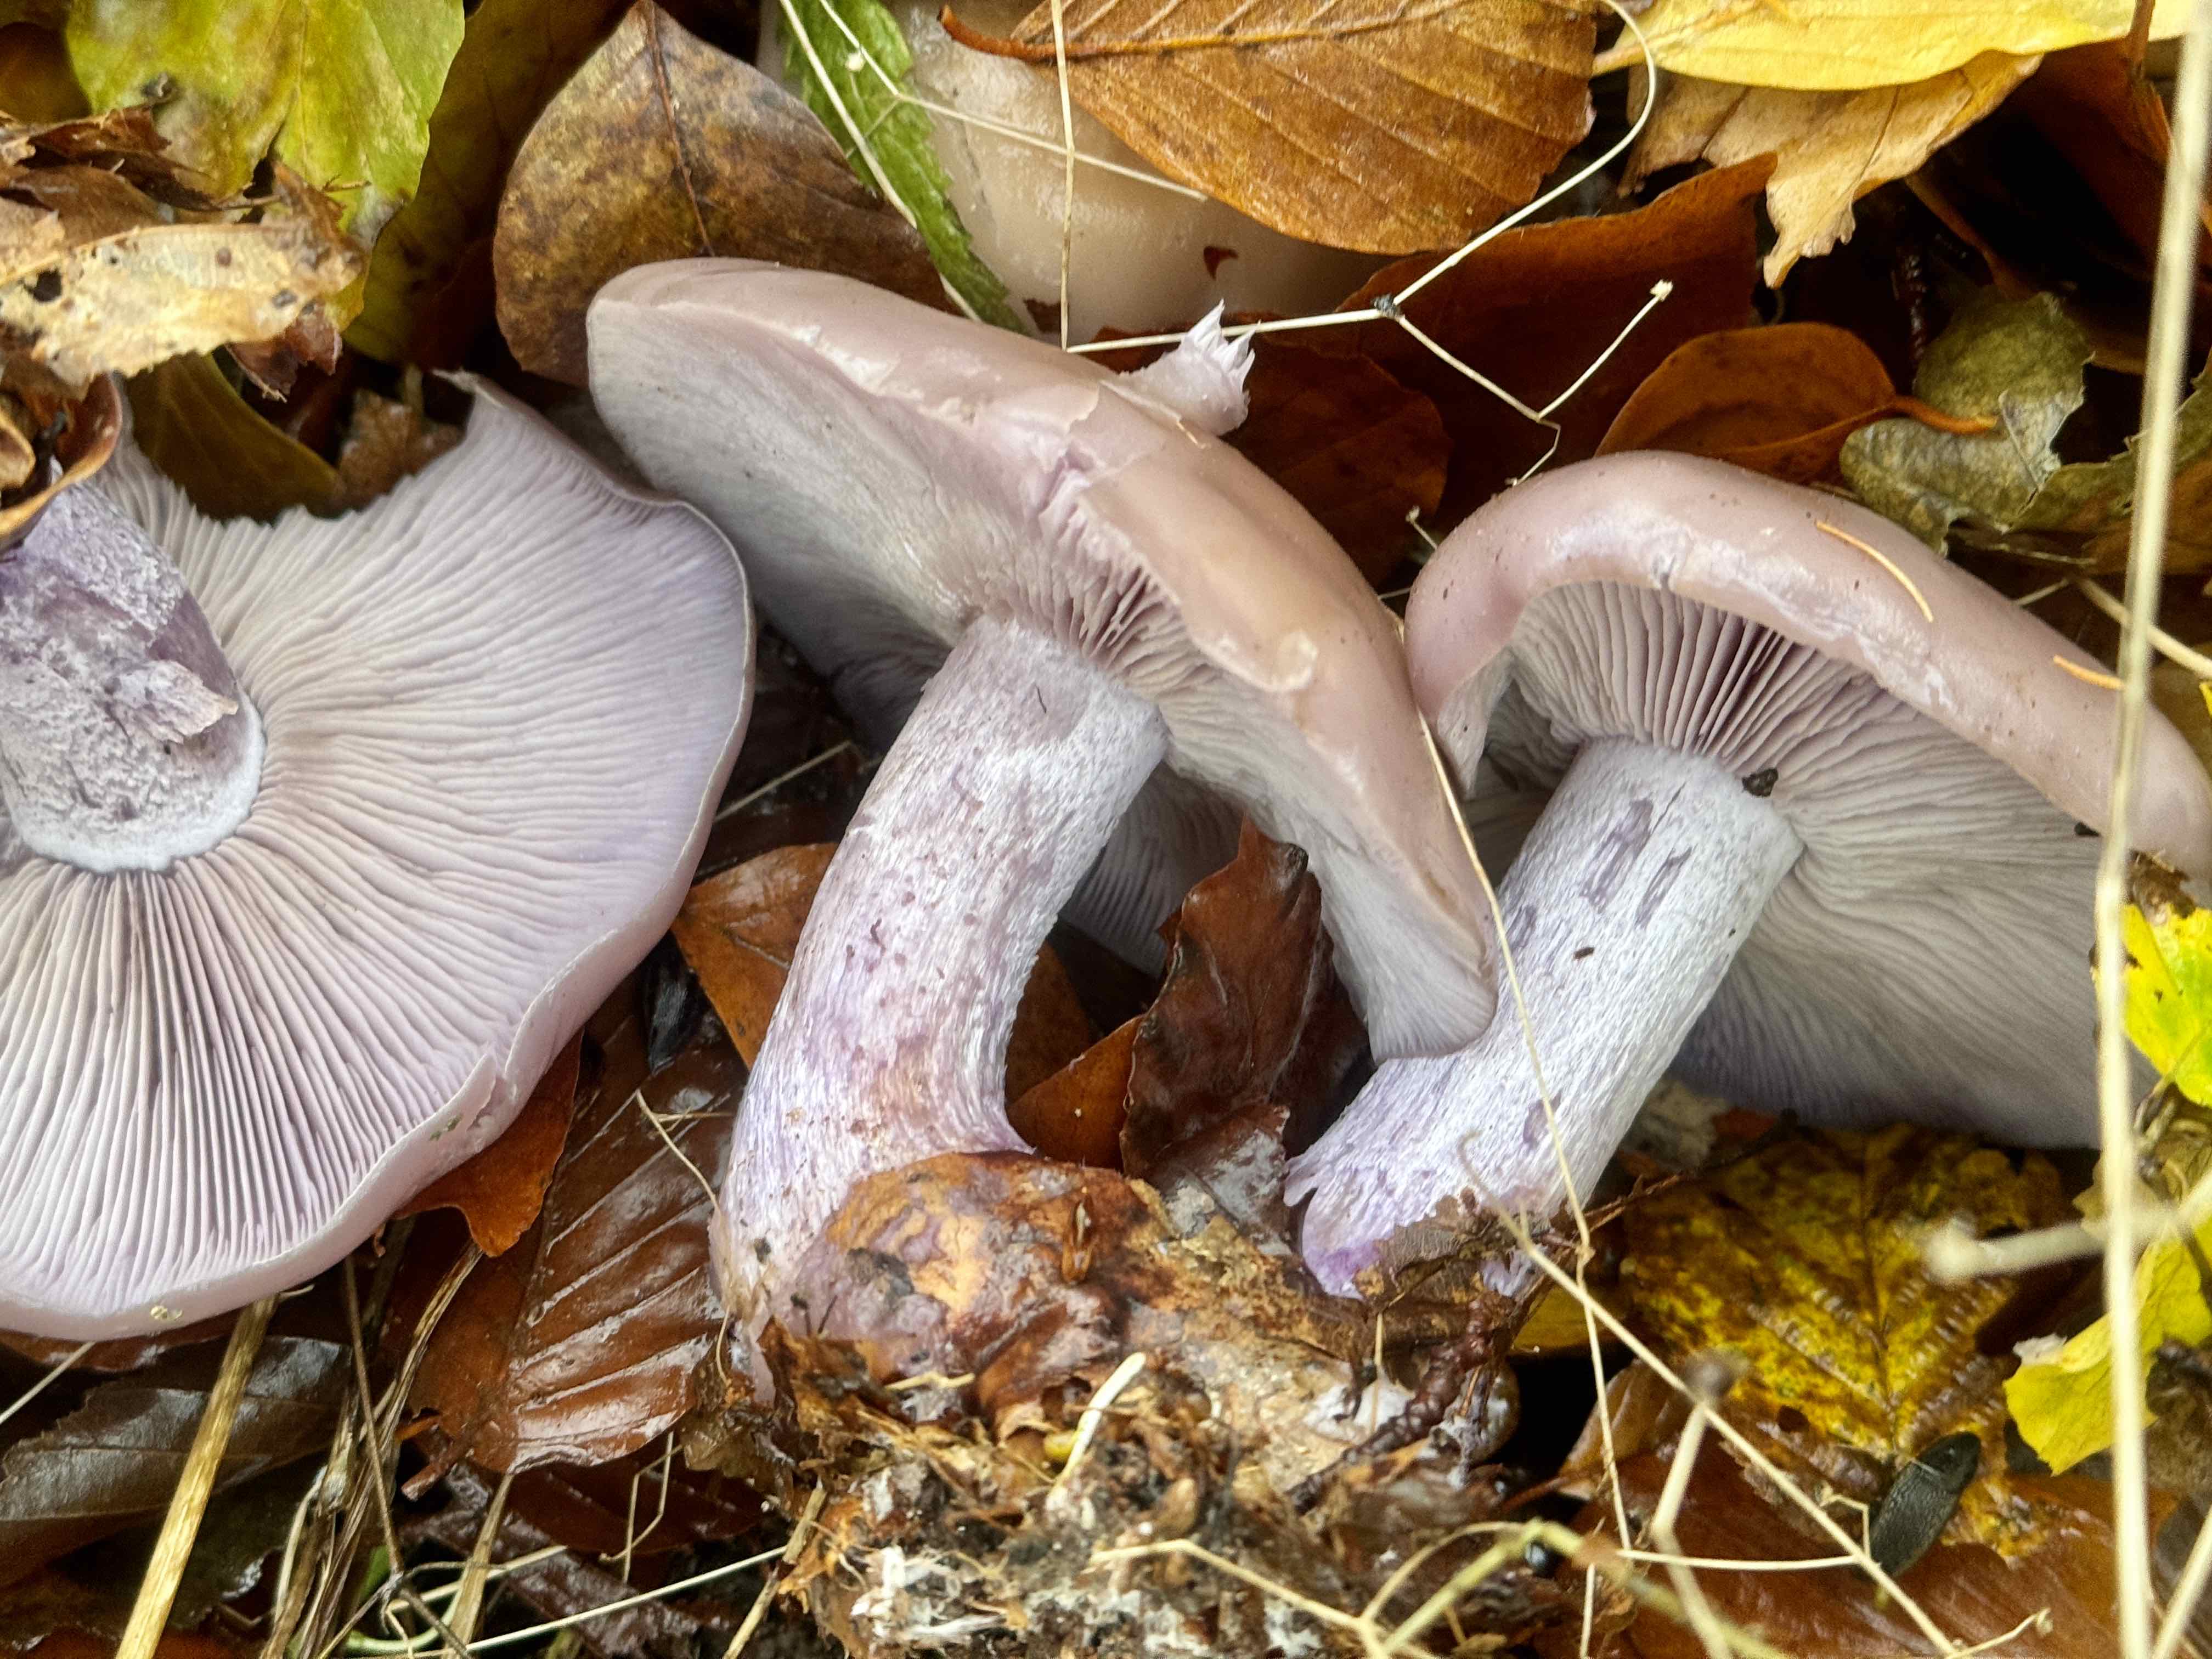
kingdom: Fungi
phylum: Basidiomycota
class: Agaricomycetes
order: Agaricales
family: Tricholomataceae
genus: Lepista
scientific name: Lepista nuda
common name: violet hekseringshat
